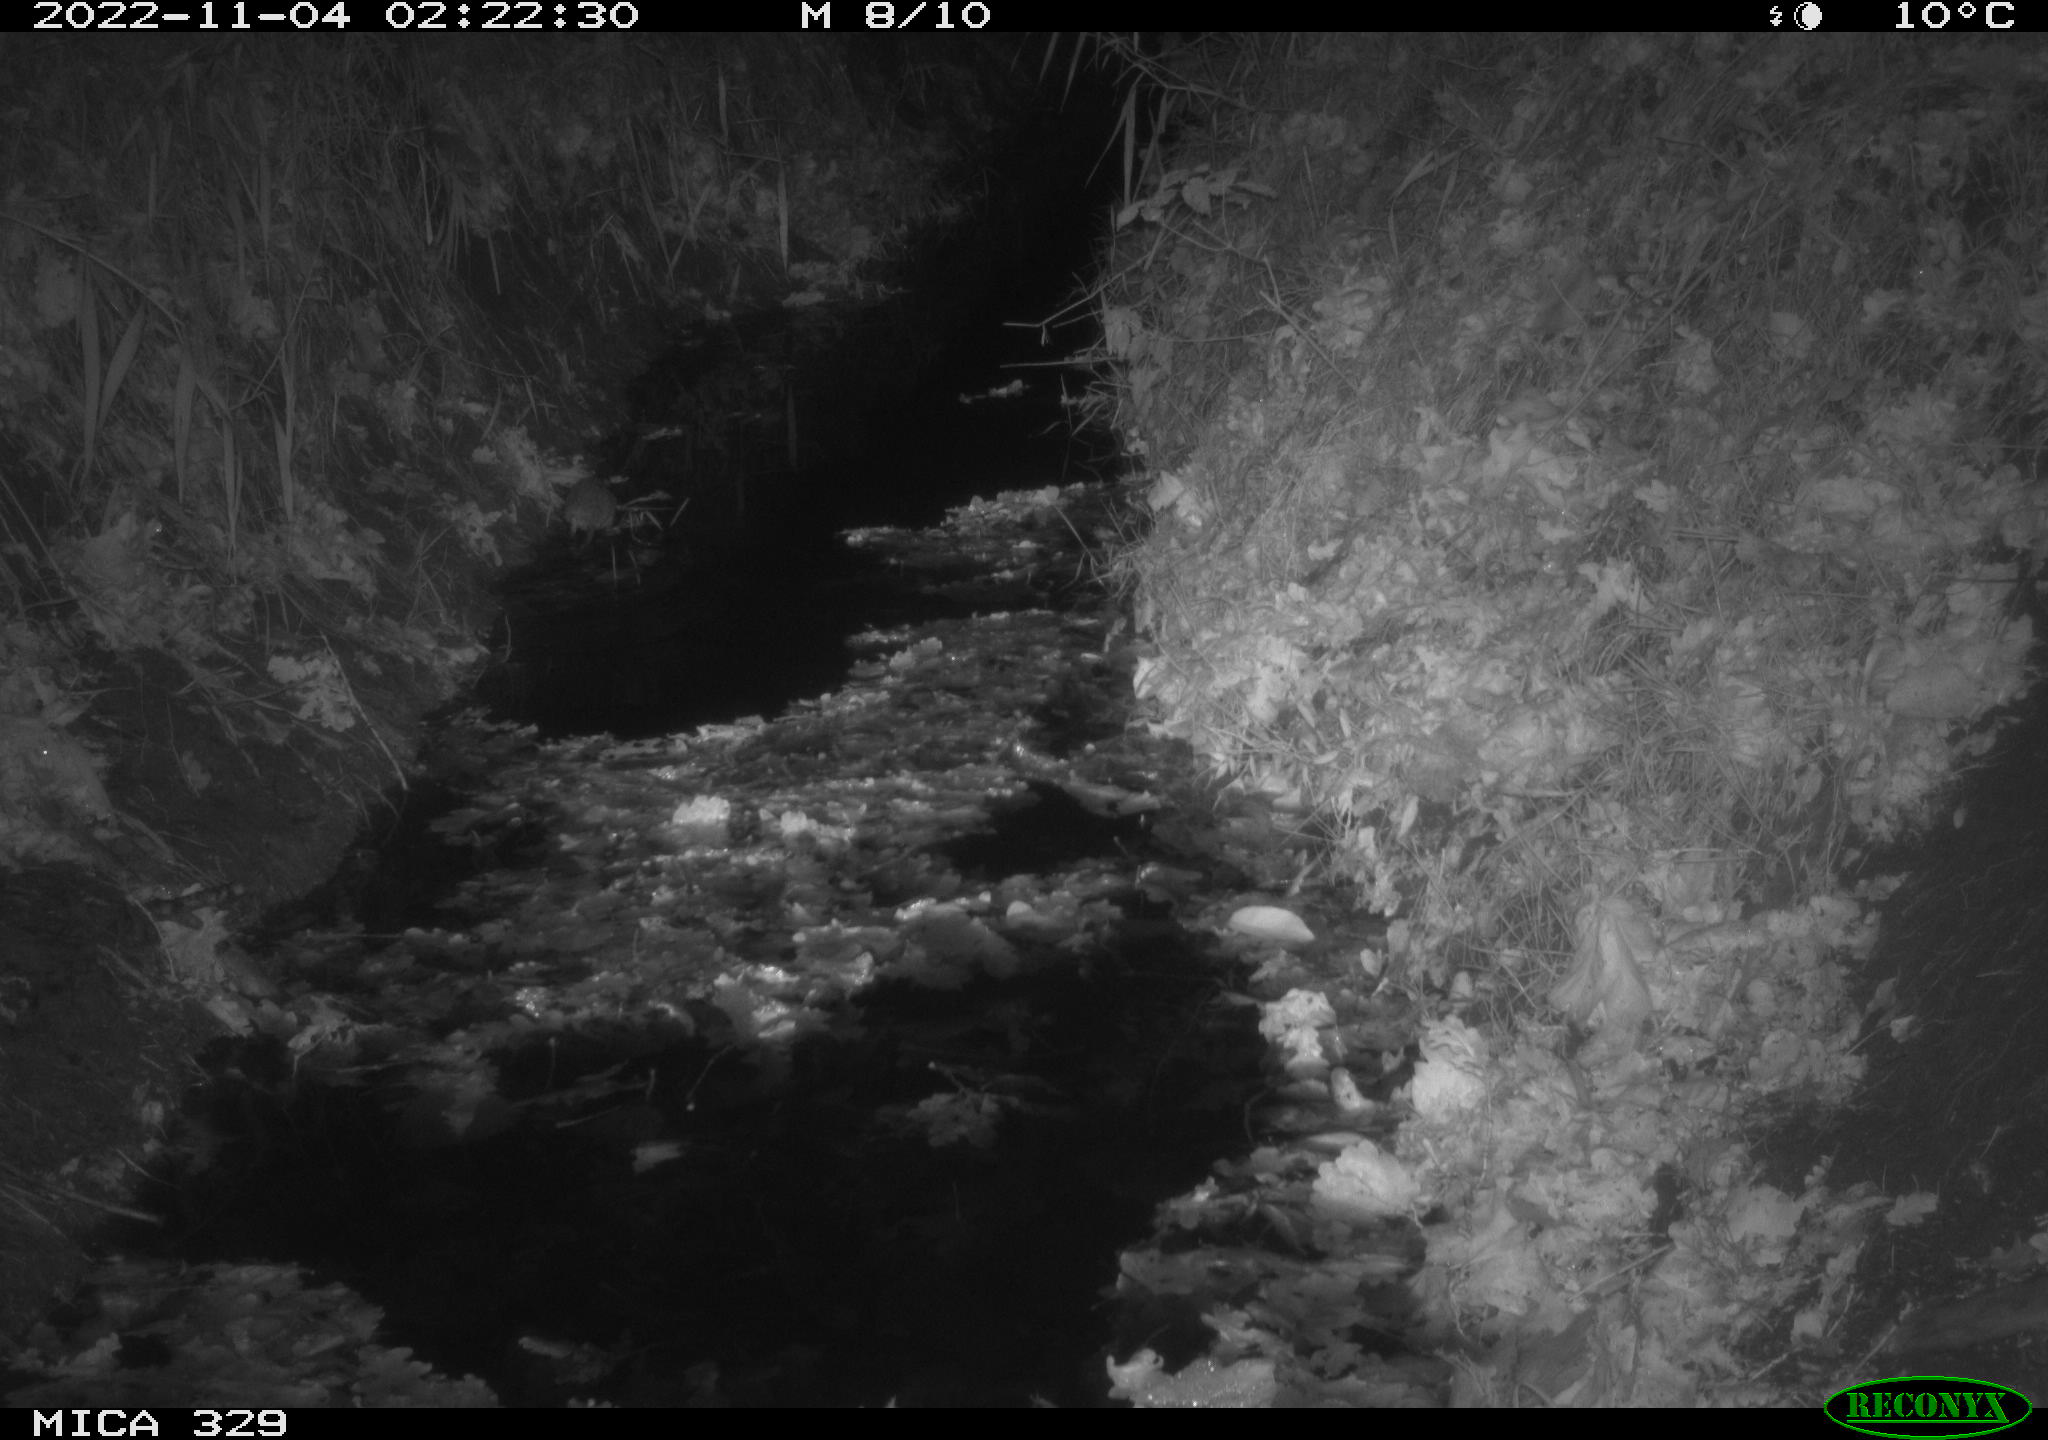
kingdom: Animalia
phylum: Chordata
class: Mammalia
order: Rodentia
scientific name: Rodentia
